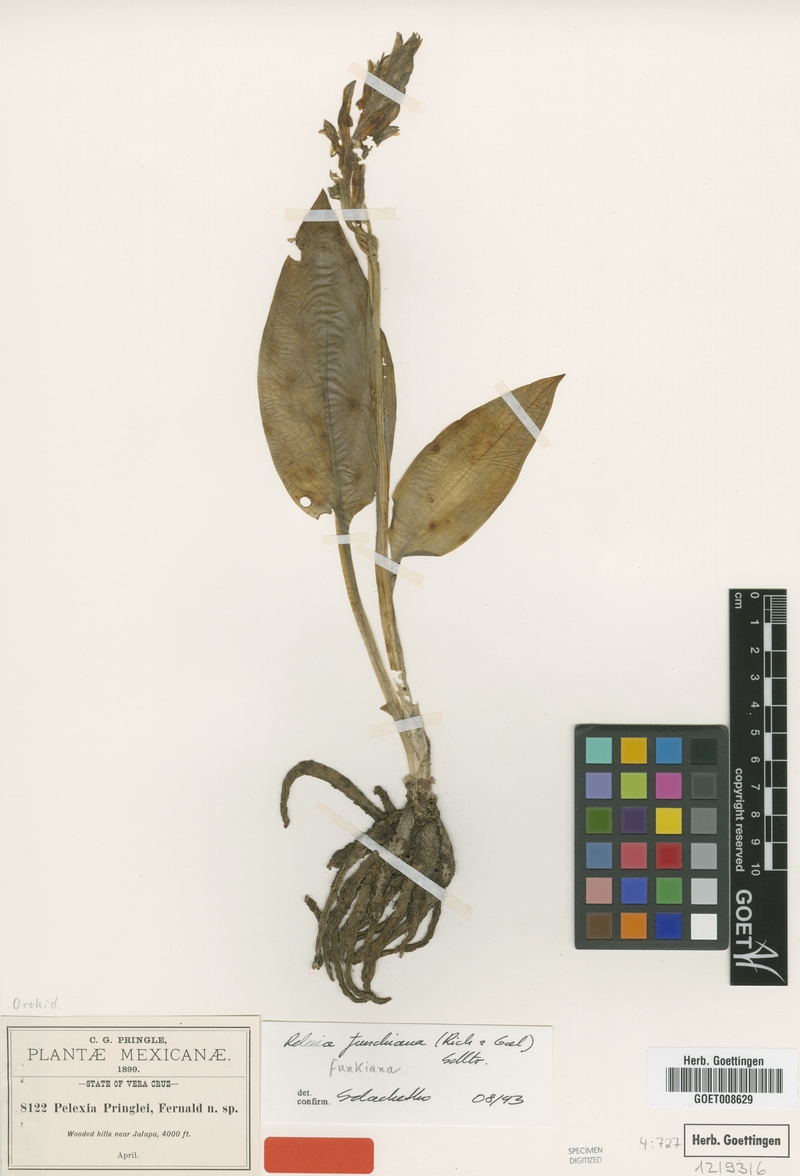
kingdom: Plantae
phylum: Tracheophyta
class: Liliopsida
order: Asparagales
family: Orchidaceae
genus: Pelexia
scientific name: Pelexia funkiana
